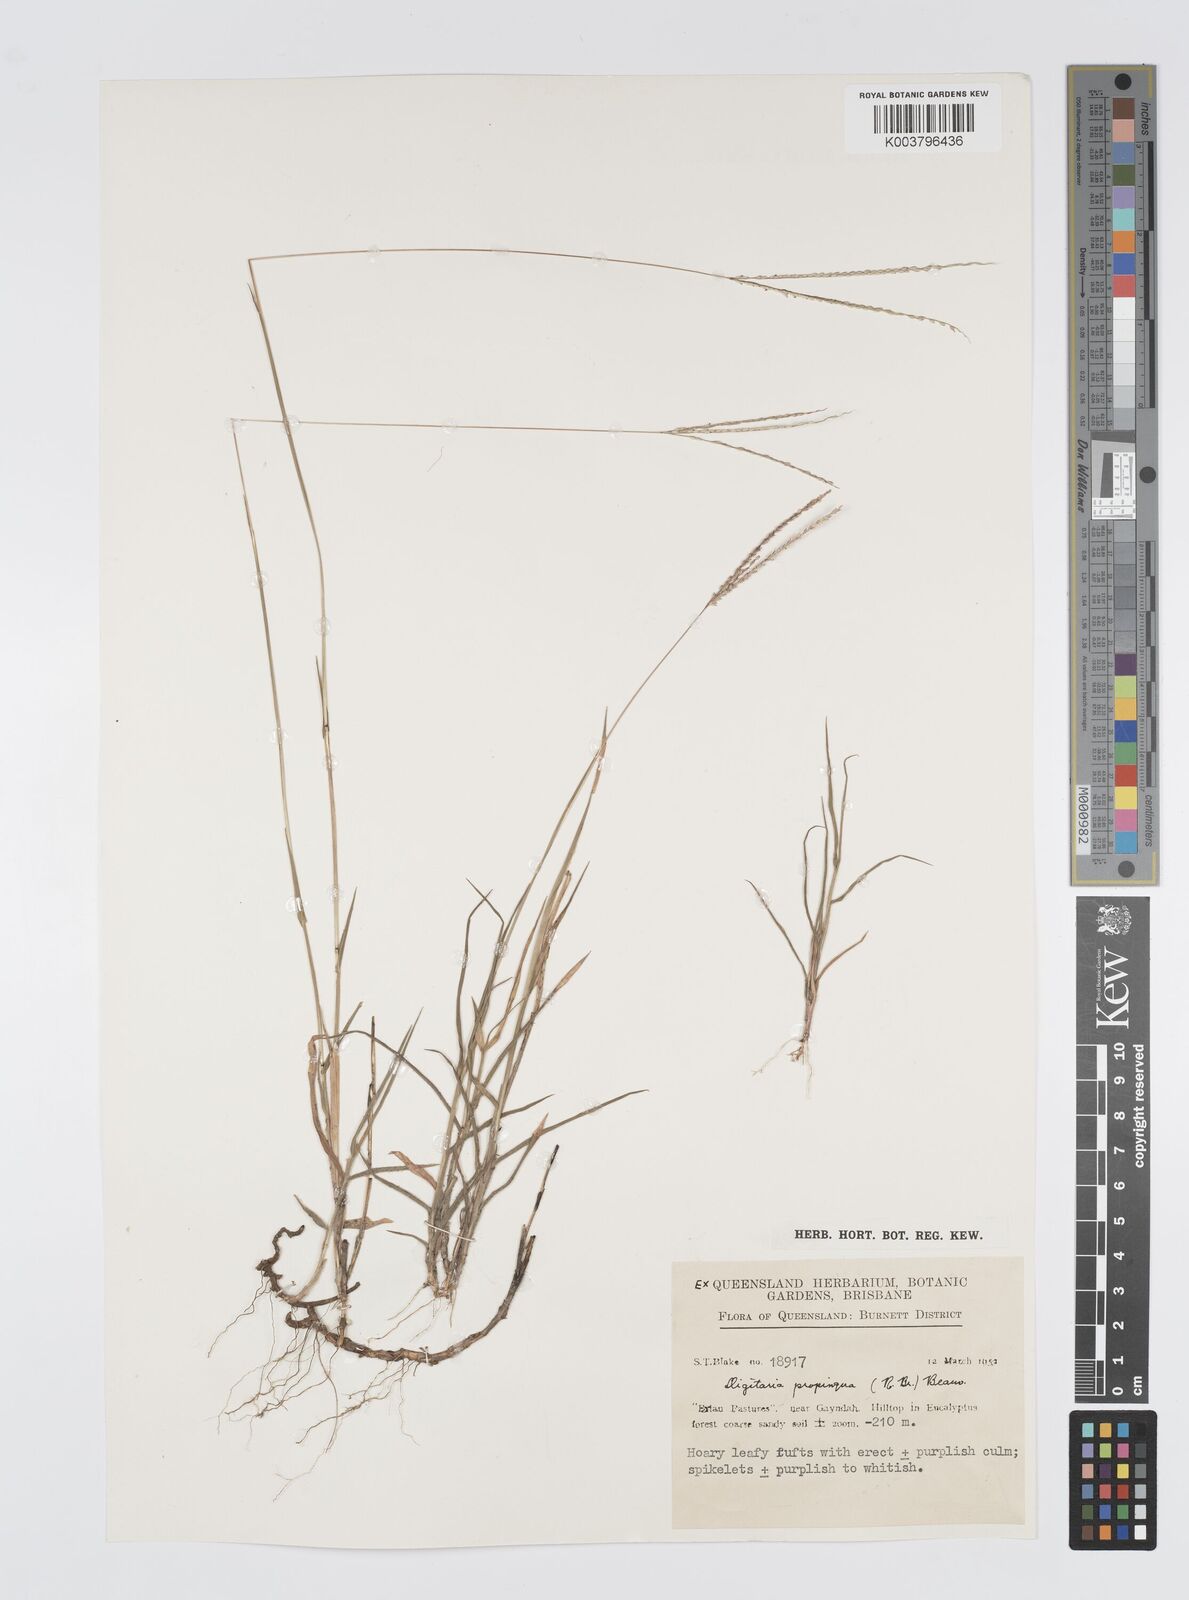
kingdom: Plantae
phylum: Tracheophyta
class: Liliopsida
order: Poales
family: Poaceae
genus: Digitaria
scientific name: Digitaria longiflora
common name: Wire crabgrass
